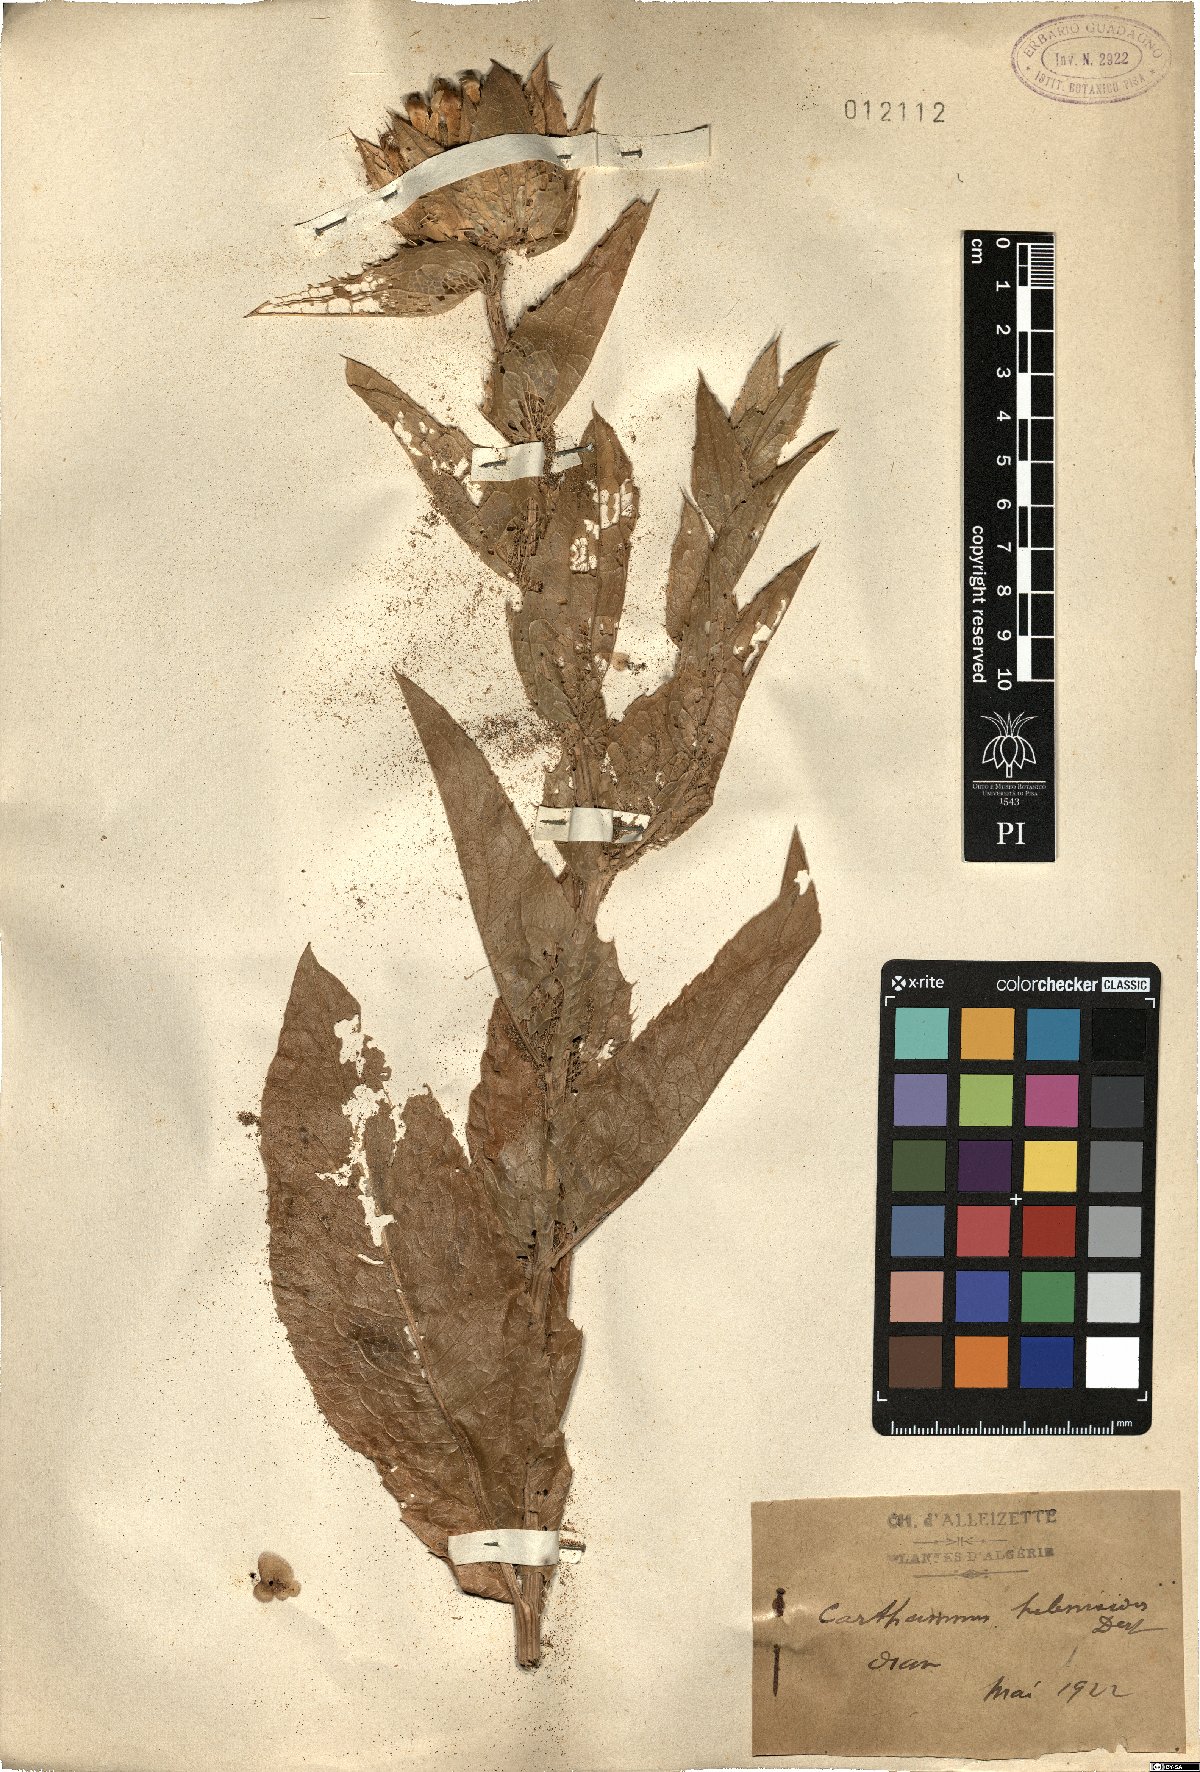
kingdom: Plantae
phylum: Tracheophyta
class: Magnoliopsida
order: Asterales
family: Asteraceae
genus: Carduncellus
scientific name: Carduncellus helenioides
